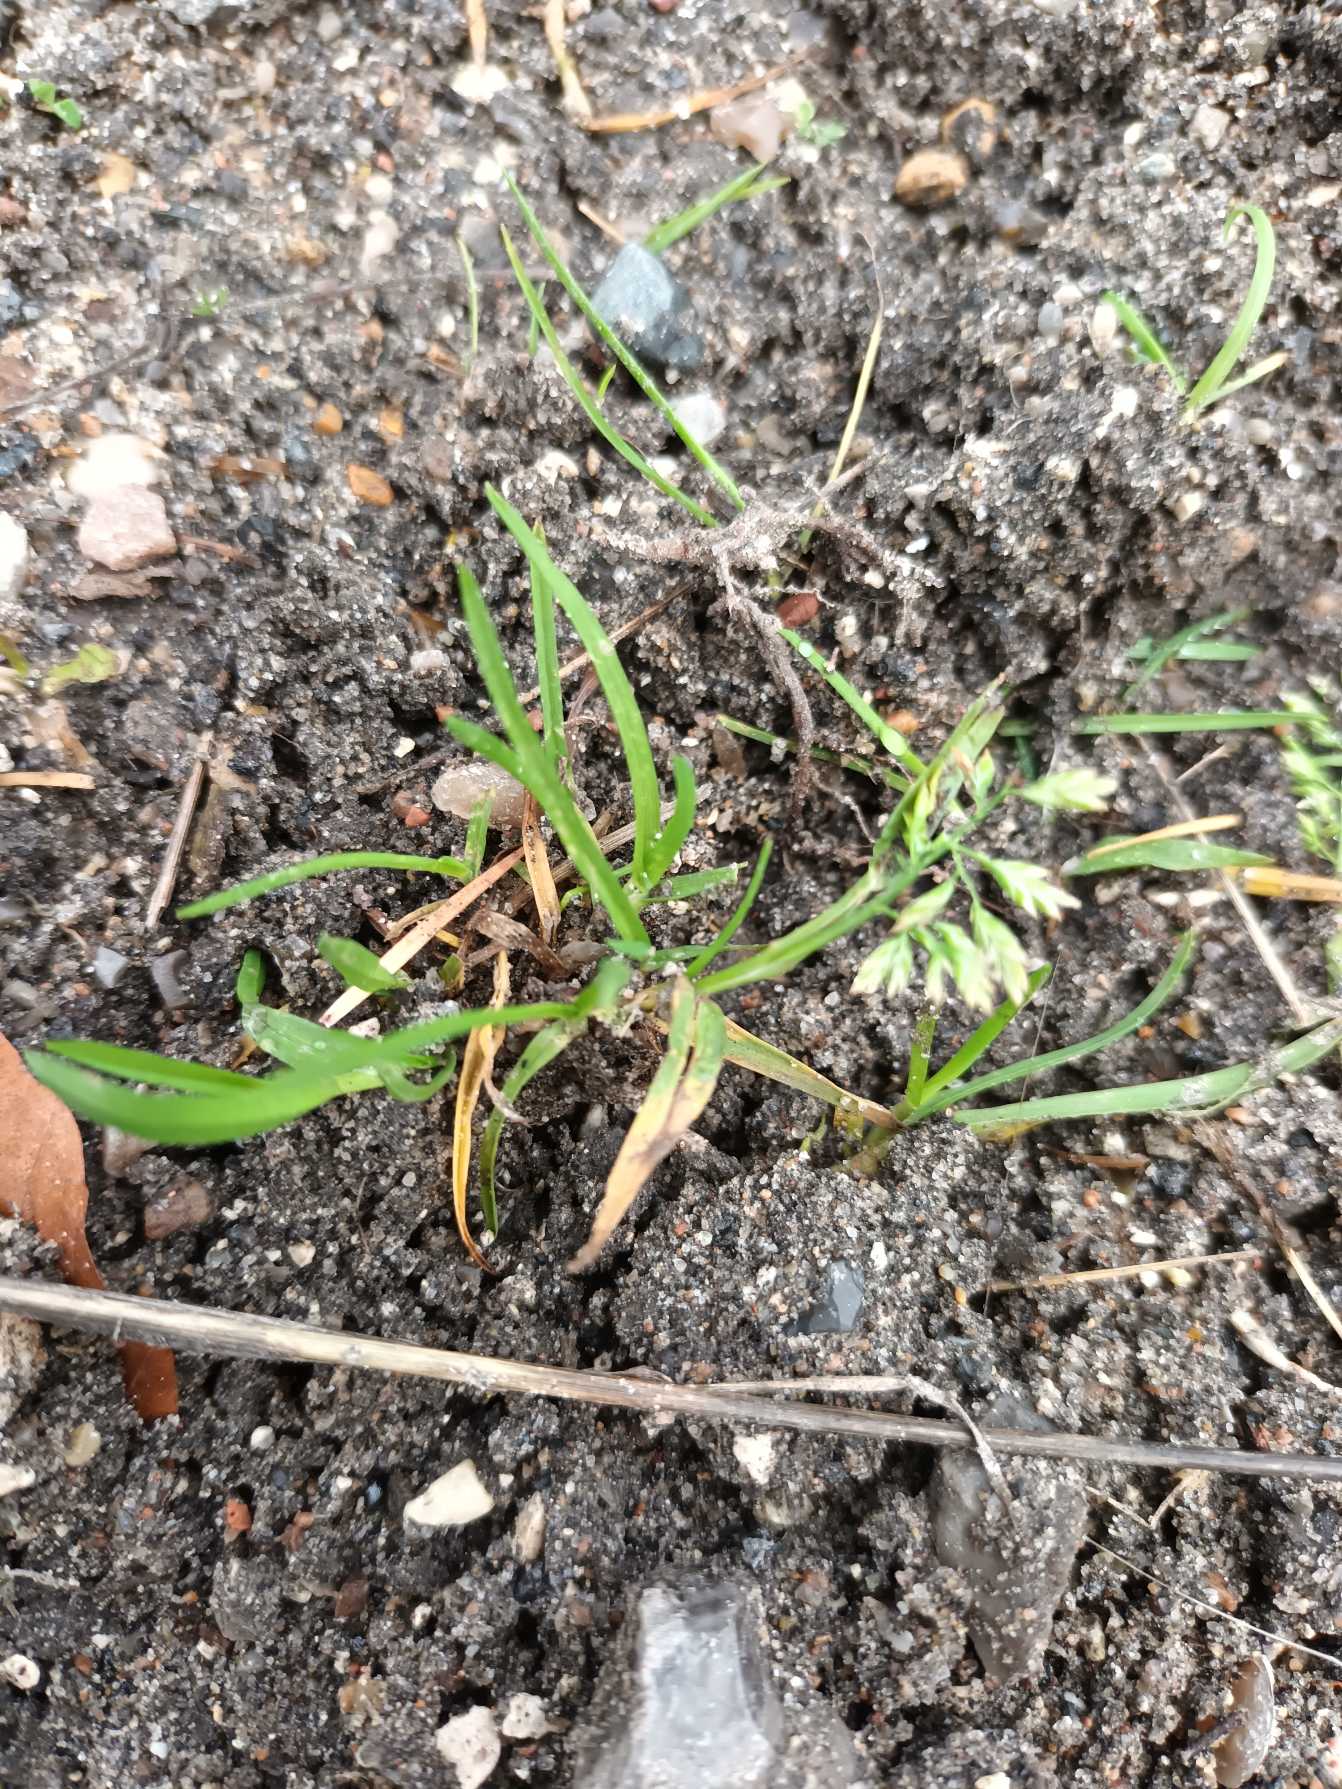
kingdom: Plantae
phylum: Tracheophyta
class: Liliopsida
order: Poales
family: Poaceae
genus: Poa
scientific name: Poa annua
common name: Enårig rapgræs
